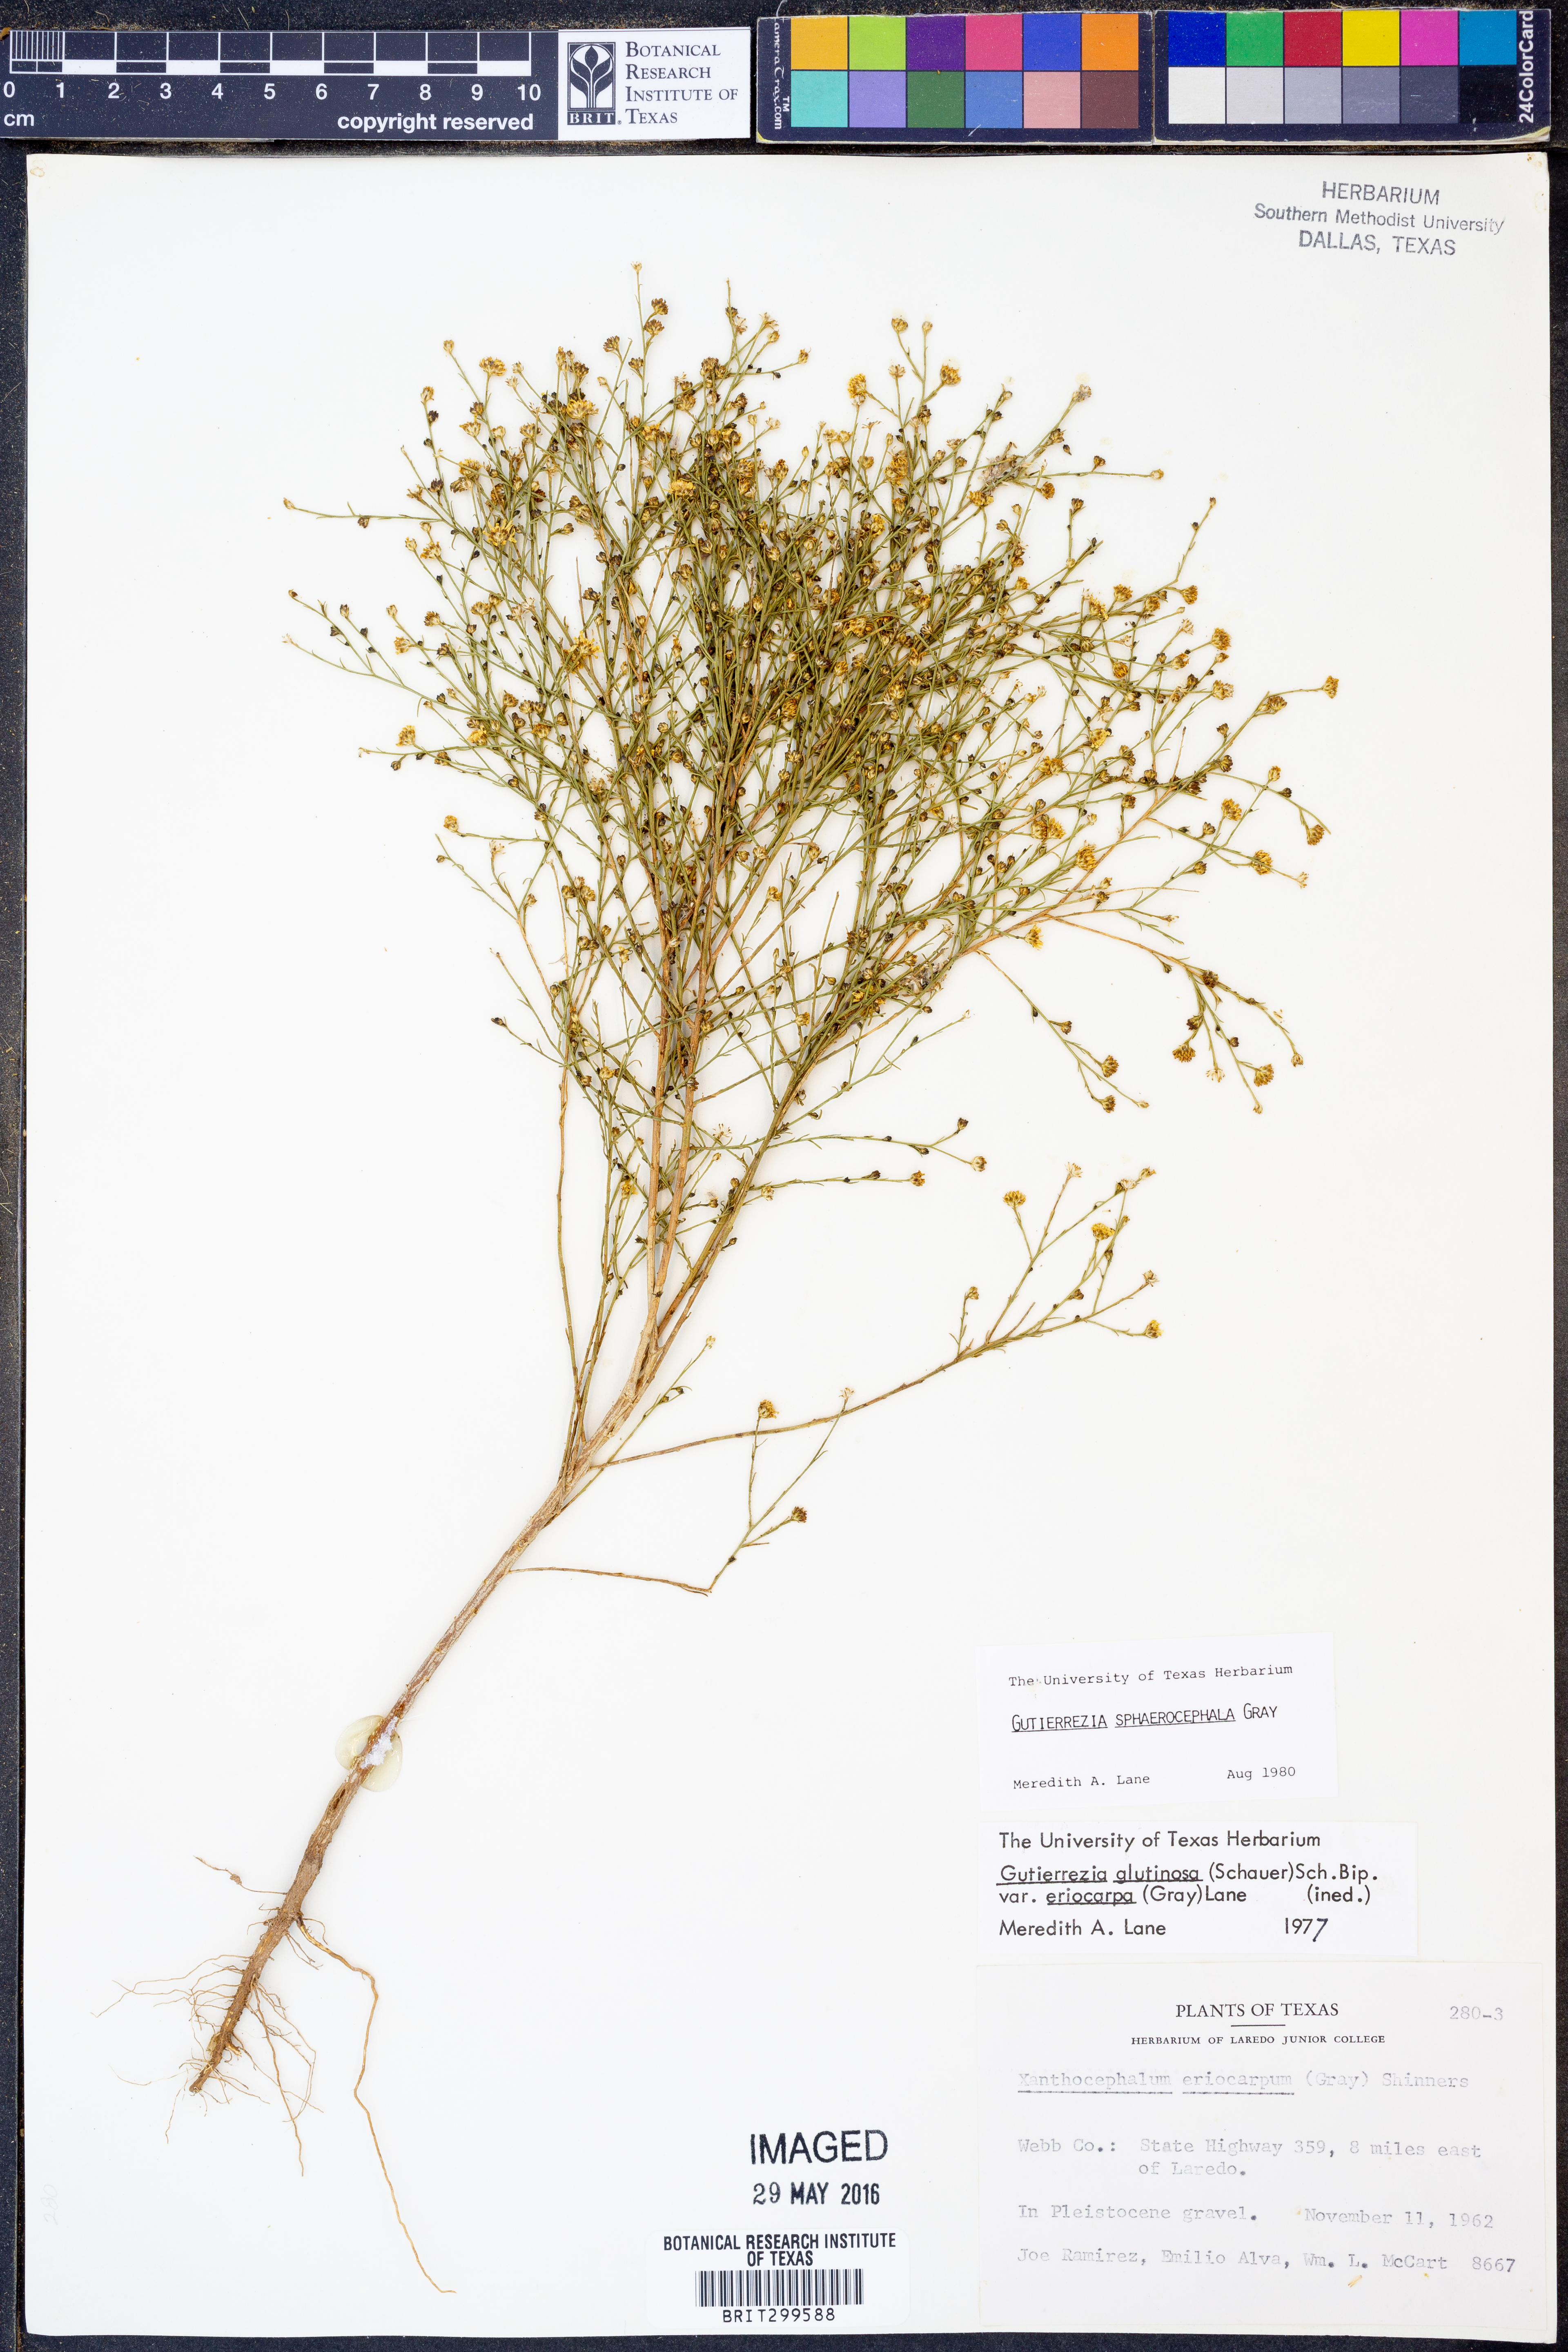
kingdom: Plantae
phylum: Tracheophyta
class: Magnoliopsida
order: Asterales
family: Asteraceae
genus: Gutierrezia
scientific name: Gutierrezia sphaerocephala
